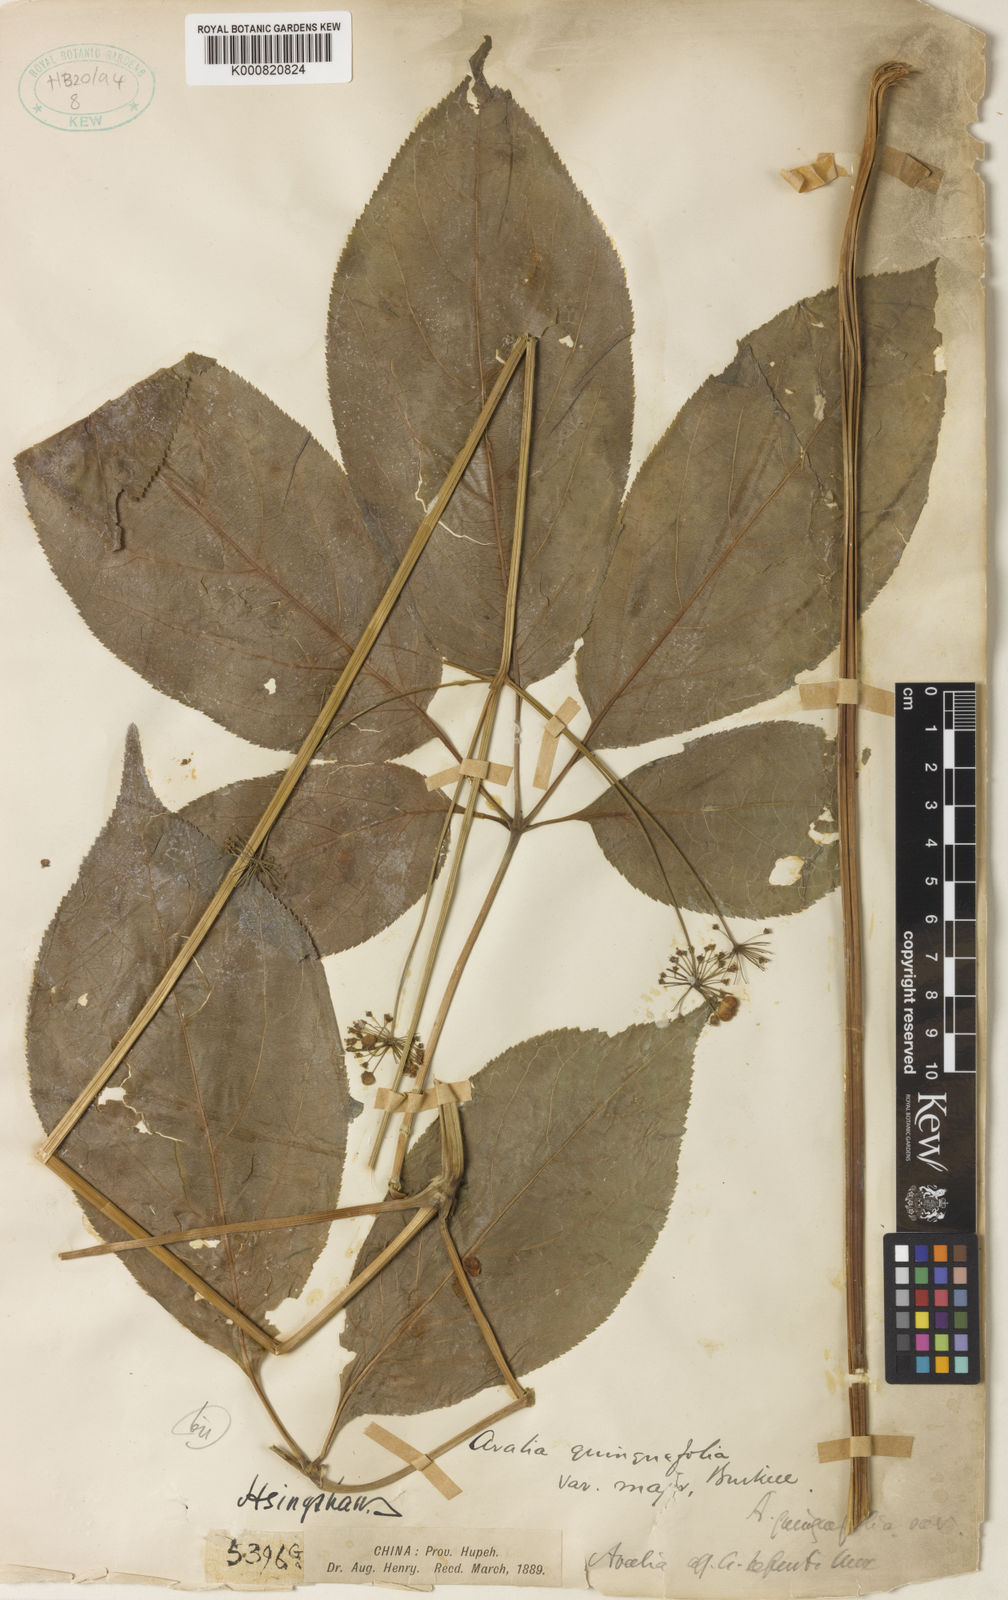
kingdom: Plantae
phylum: Tracheophyta
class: Magnoliopsida
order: Apiales
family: Araliaceae
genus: Panax
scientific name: Panax bipinnatifidus
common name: Feather-leaf bamboo ginseng
